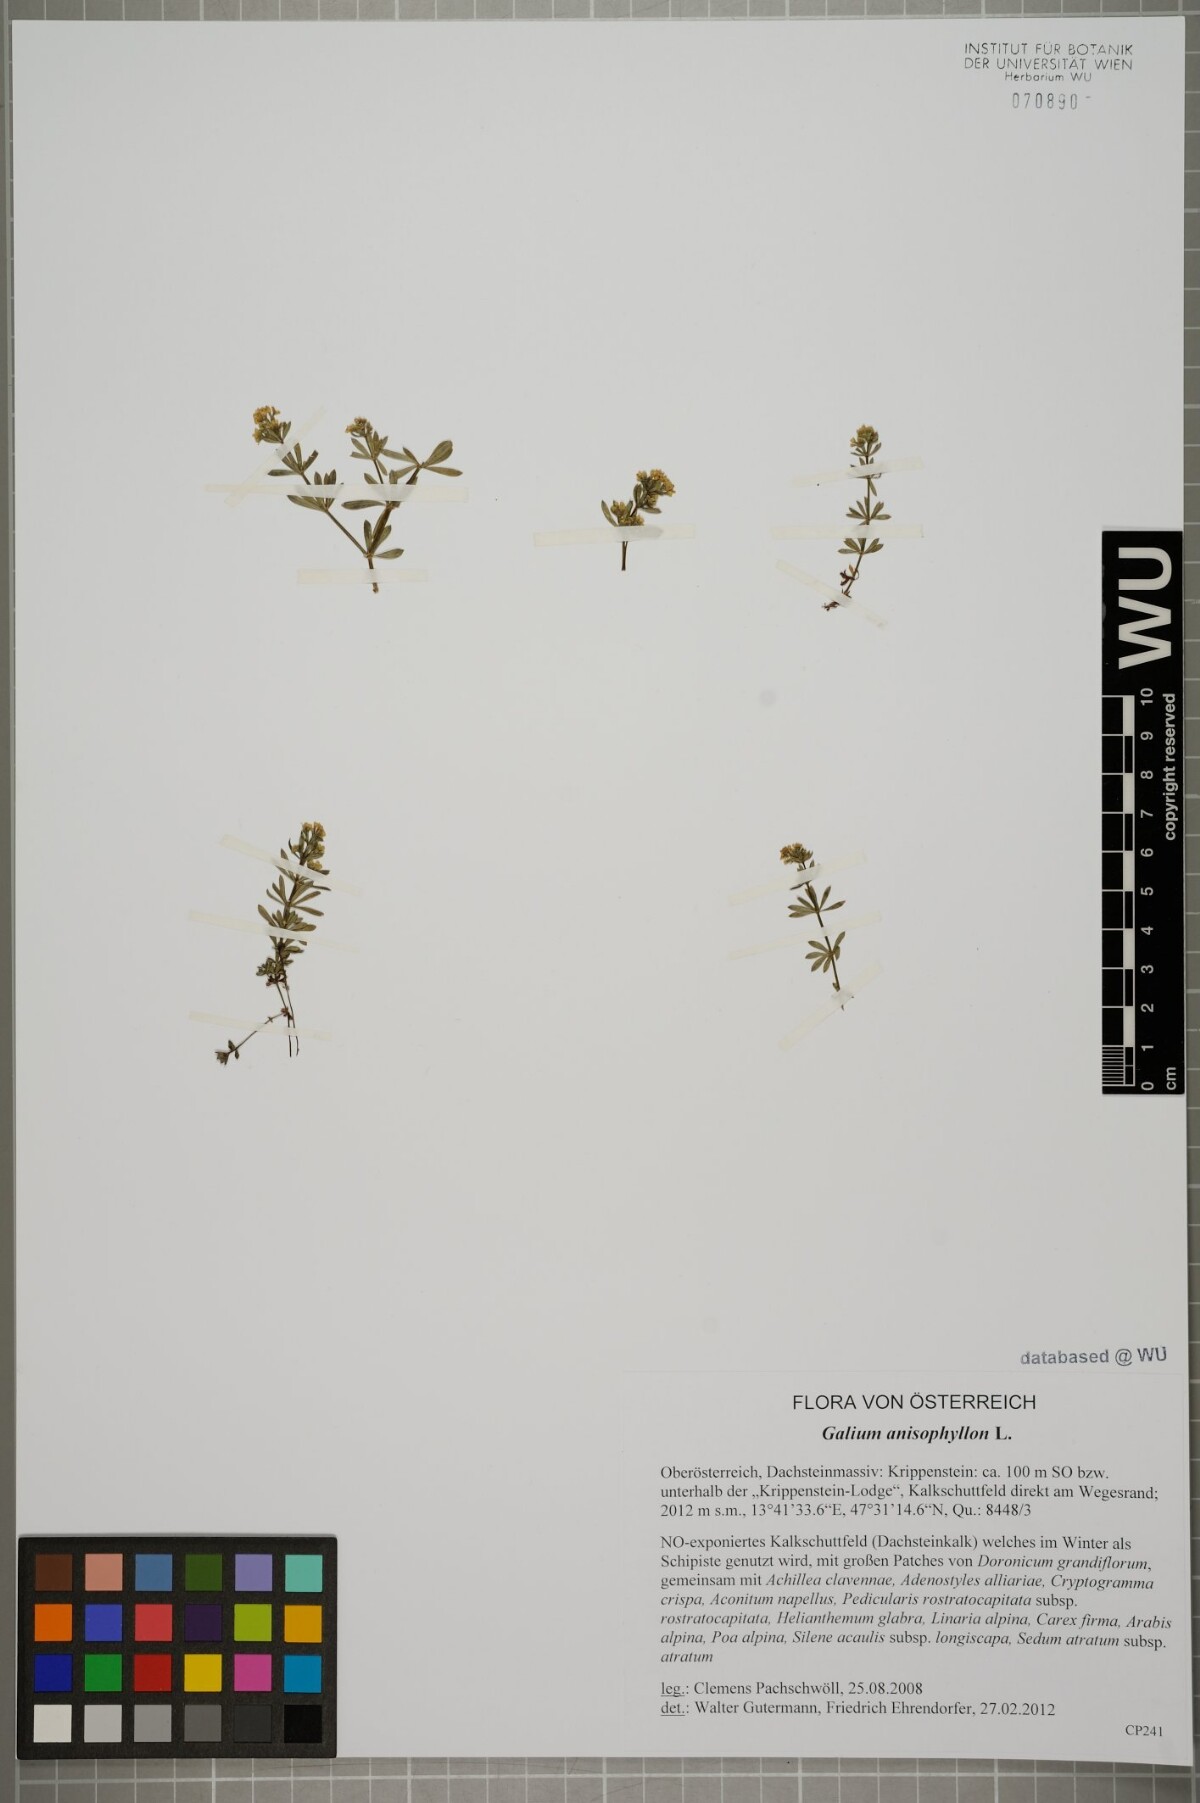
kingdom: Plantae
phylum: Tracheophyta
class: Magnoliopsida
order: Gentianales
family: Rubiaceae
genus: Galium
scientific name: Galium anisophyllon
